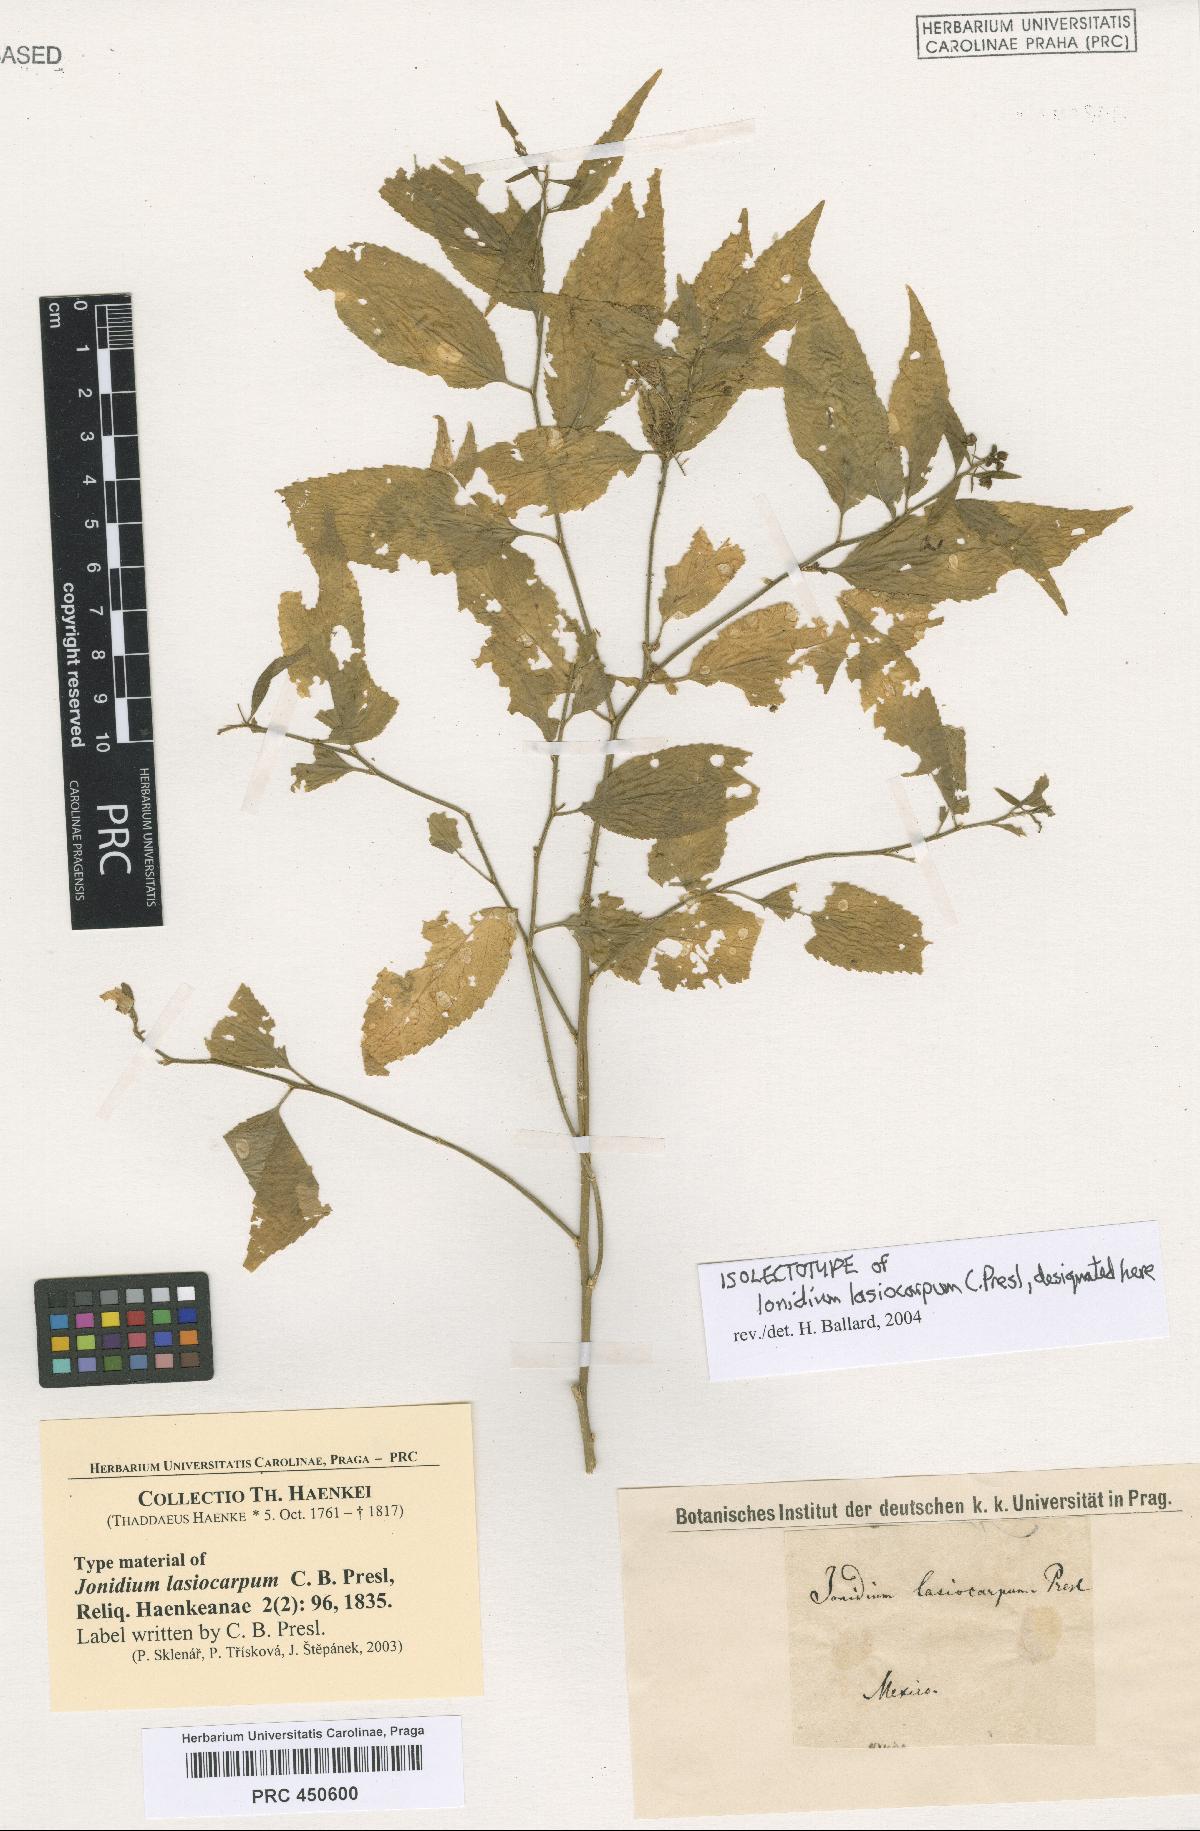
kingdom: Plantae
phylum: Tracheophyta
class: Magnoliopsida
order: Malpighiales
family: Violaceae
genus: Hybanthus
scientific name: Hybanthus serrulatus
